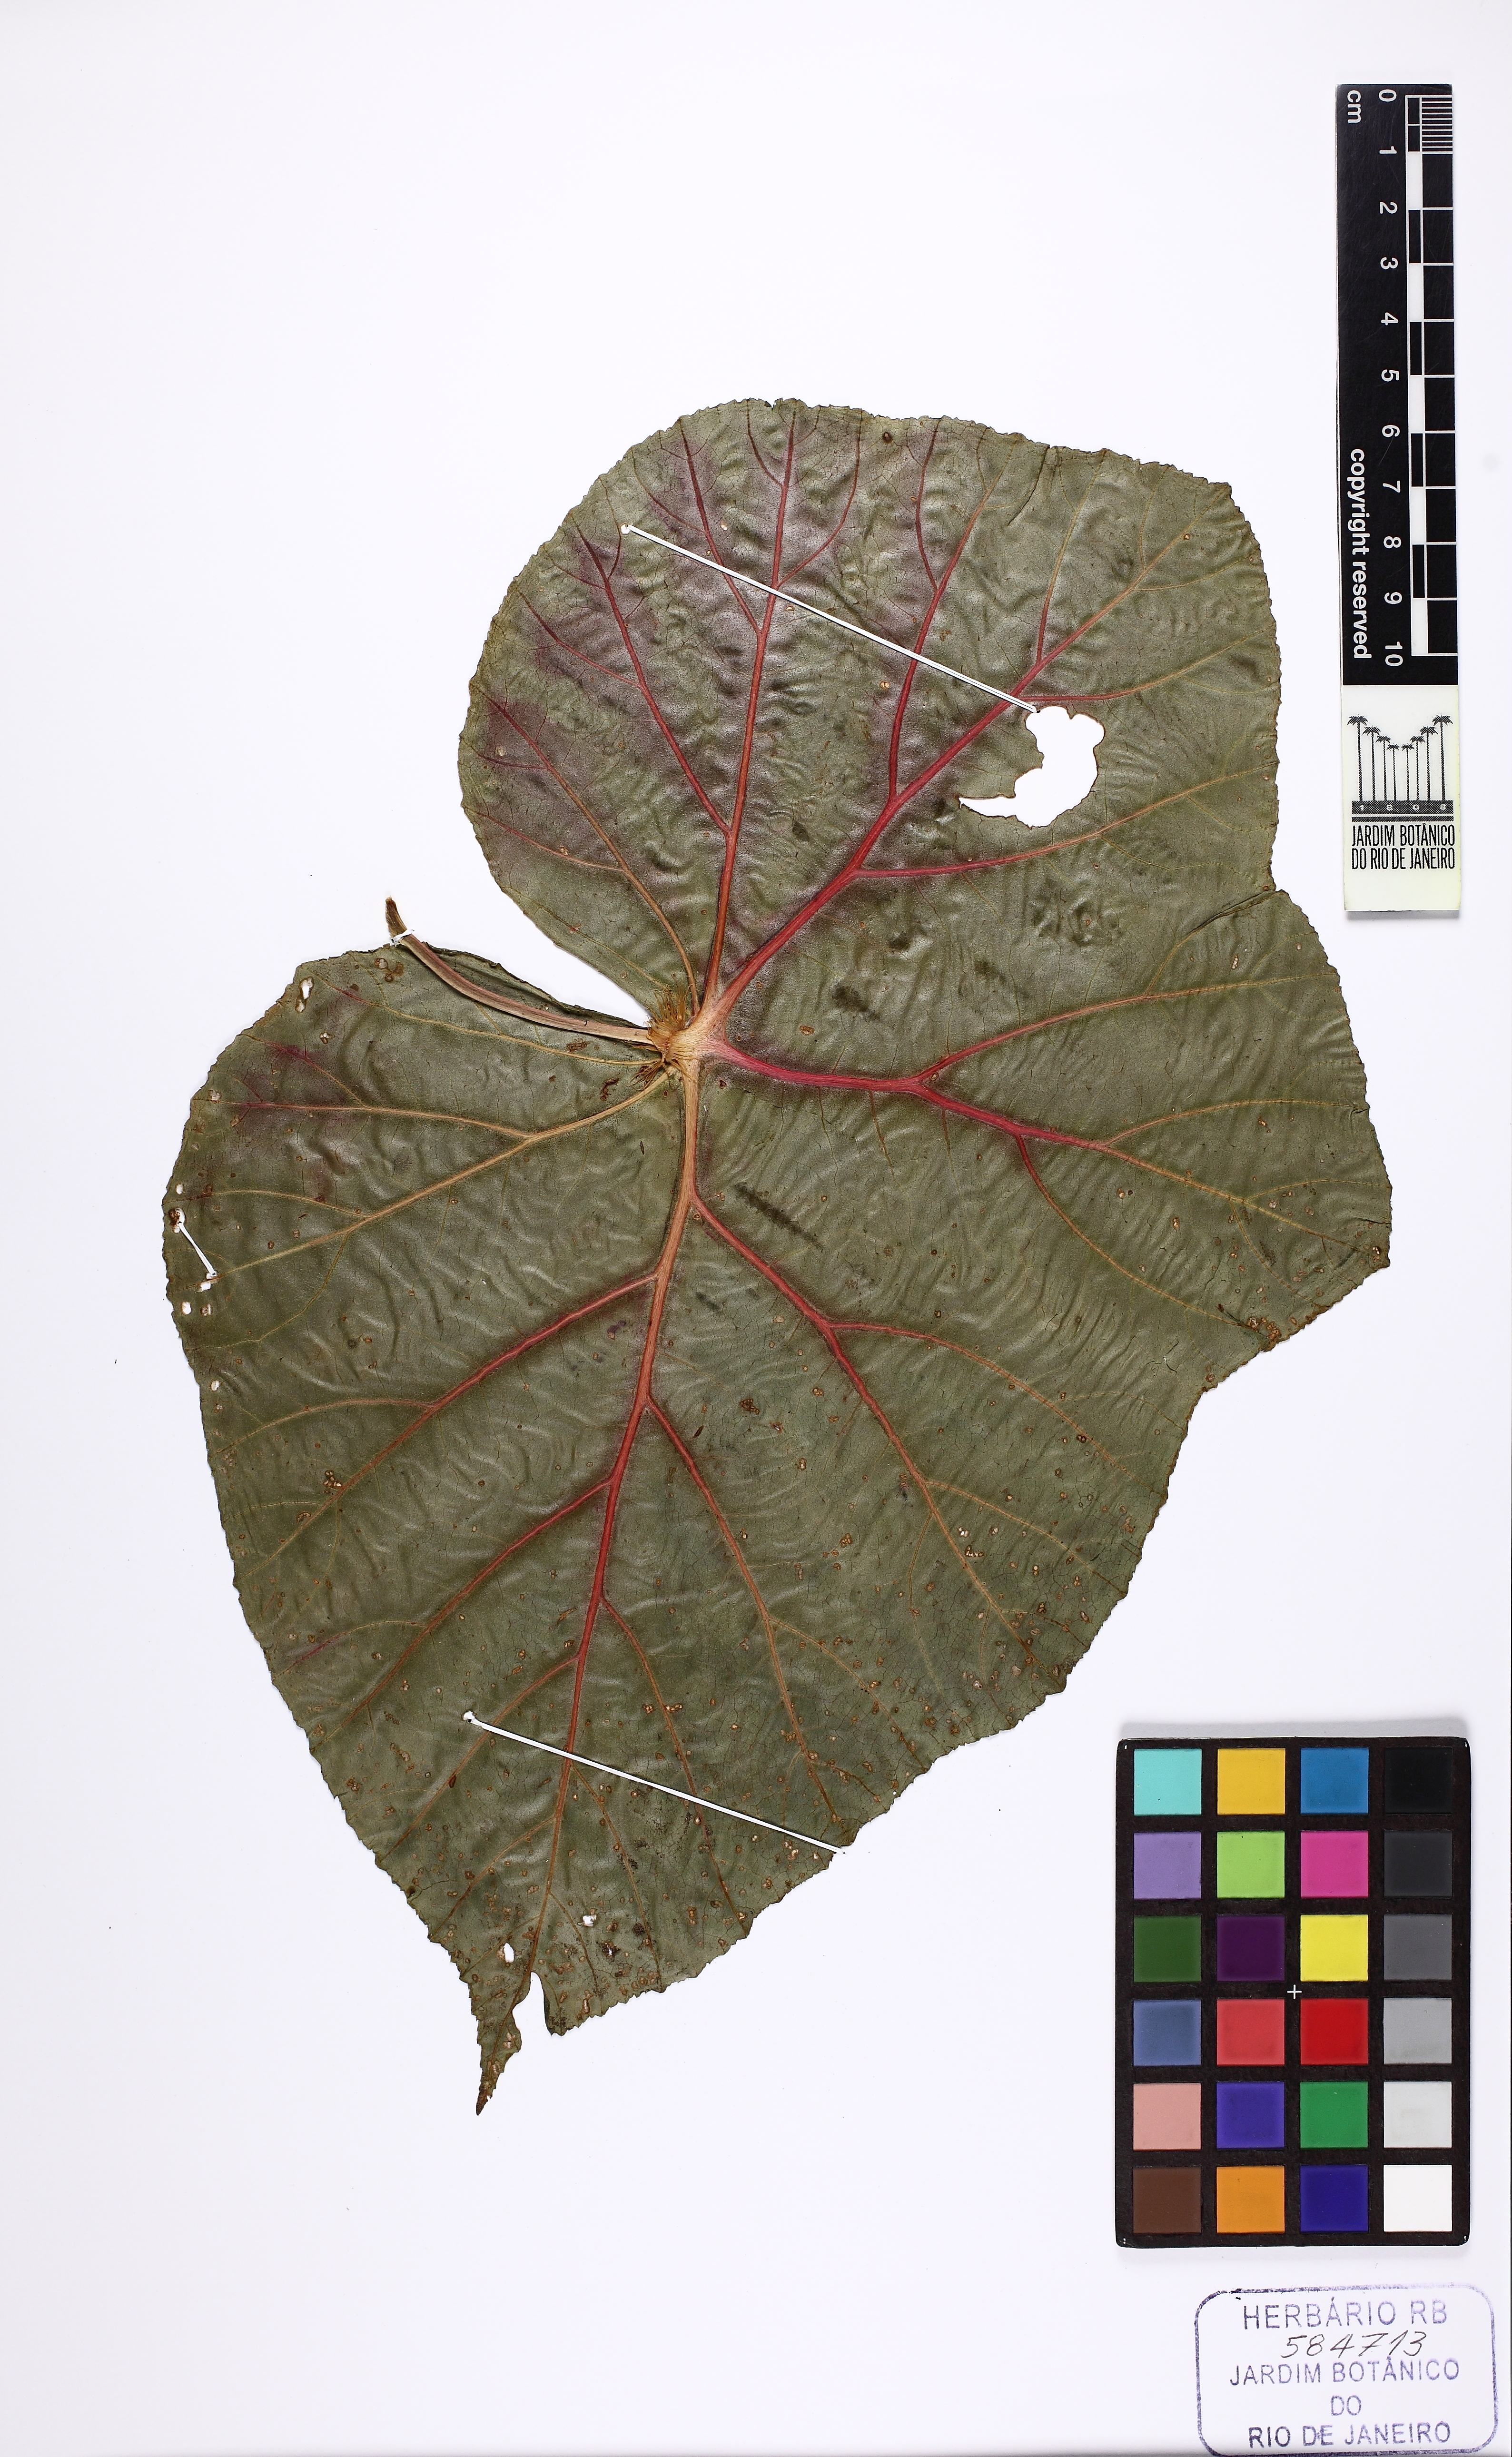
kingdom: Plantae
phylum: Tracheophyta
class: Magnoliopsida
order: Cucurbitales
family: Begoniaceae
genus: Begonia
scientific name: Begonia longibarbata
